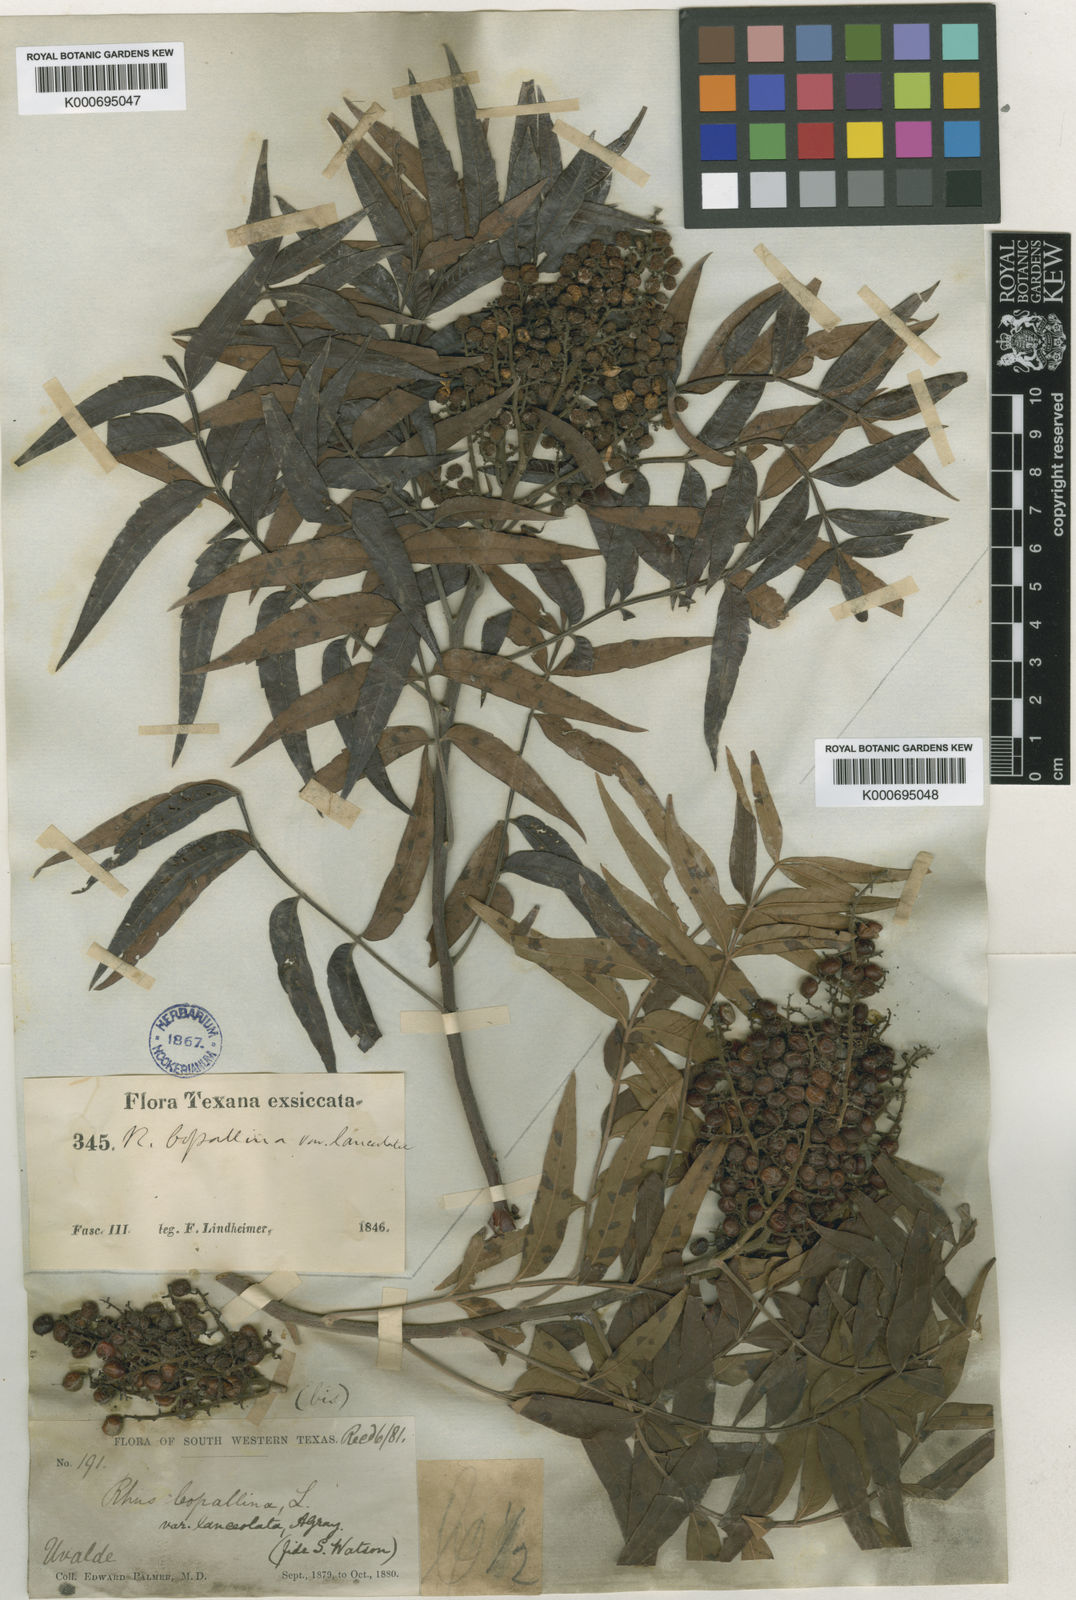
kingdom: Plantae
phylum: Tracheophyta
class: Magnoliopsida
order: Sapindales
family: Anacardiaceae
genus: Rhus
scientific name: Rhus lanceolata
